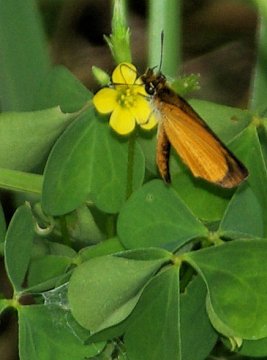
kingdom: Animalia
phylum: Arthropoda
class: Insecta
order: Lepidoptera
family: Hesperiidae
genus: Ancyloxypha
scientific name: Ancyloxypha numitor
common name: Least Skipper
